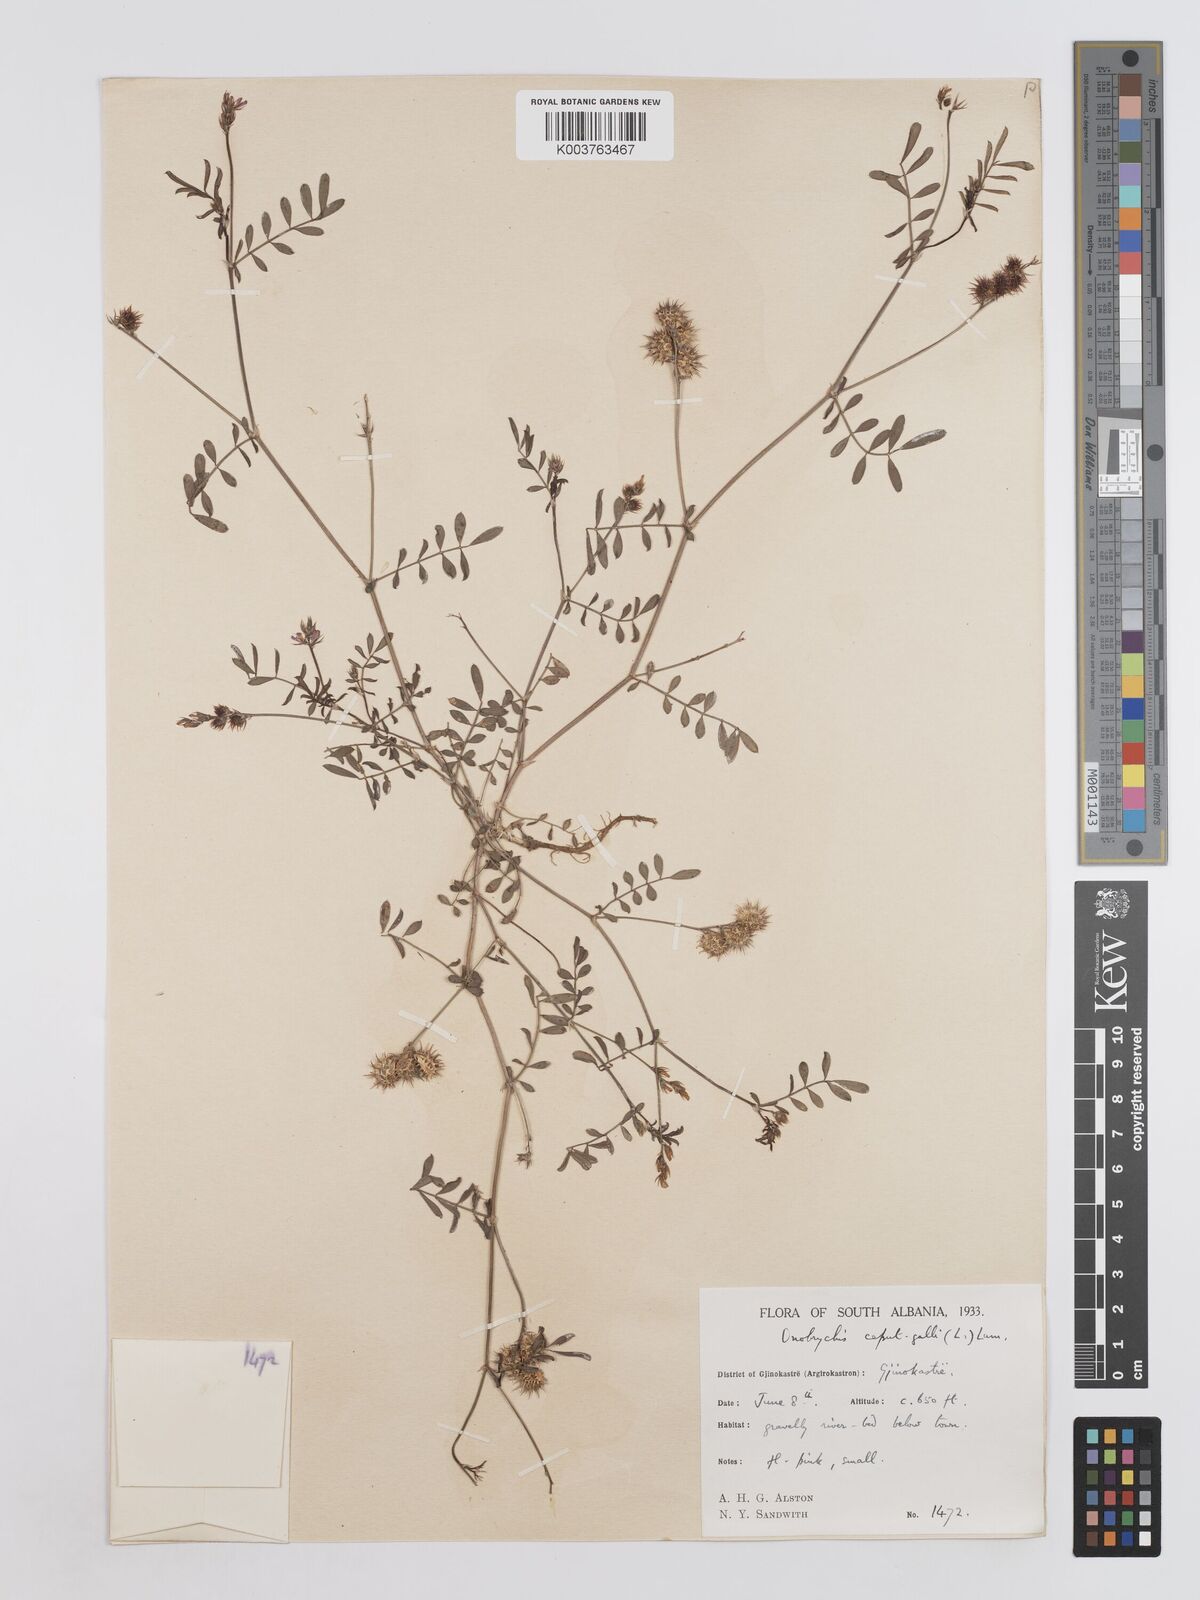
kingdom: Plantae
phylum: Tracheophyta
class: Magnoliopsida
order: Fabales
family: Fabaceae
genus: Onobrychis
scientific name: Onobrychis caput-galli
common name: Cockscomb sainfoin
